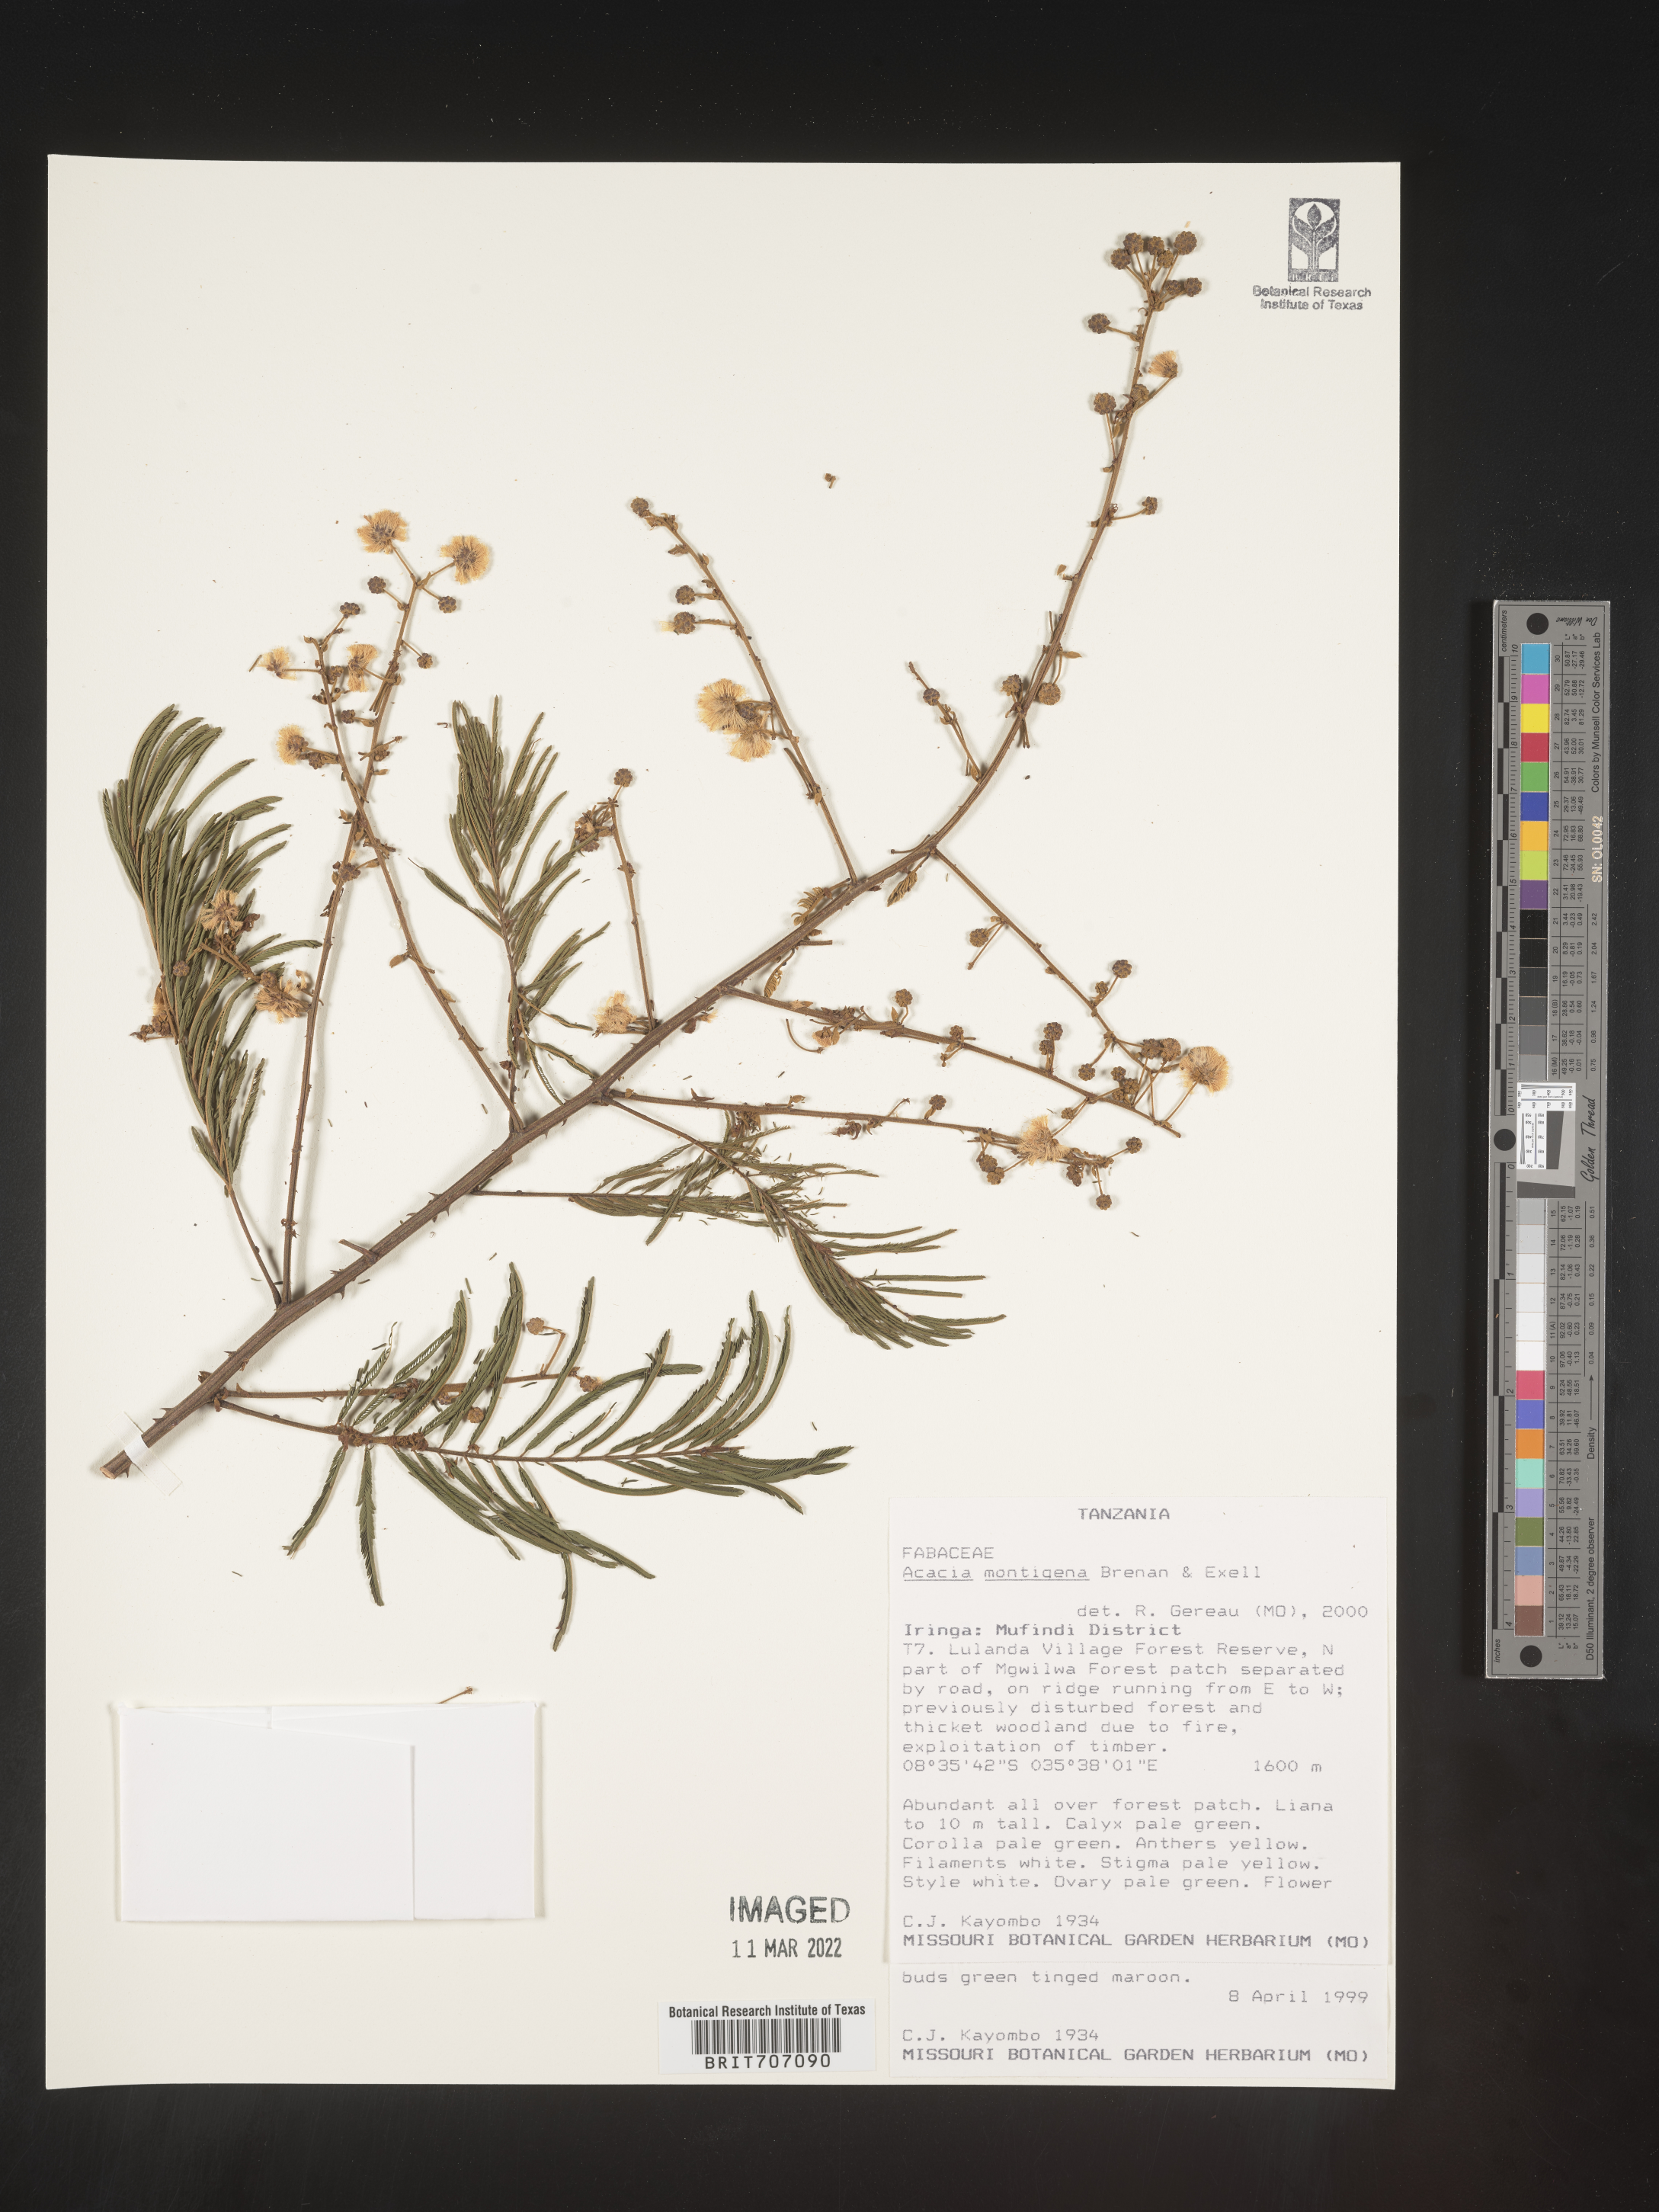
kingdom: Plantae
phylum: Tracheophyta
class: Magnoliopsida
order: Fabales
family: Fabaceae
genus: Acacia
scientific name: Acacia
